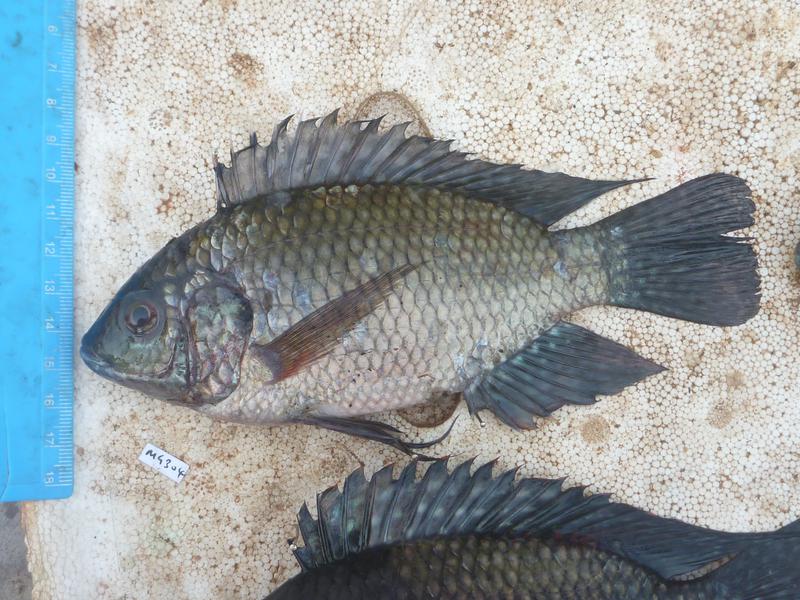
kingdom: Animalia
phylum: Chordata
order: Perciformes
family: Cichlidae
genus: Oreochromis
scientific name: Oreochromis leucostictus
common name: Blue spotted tilapia
